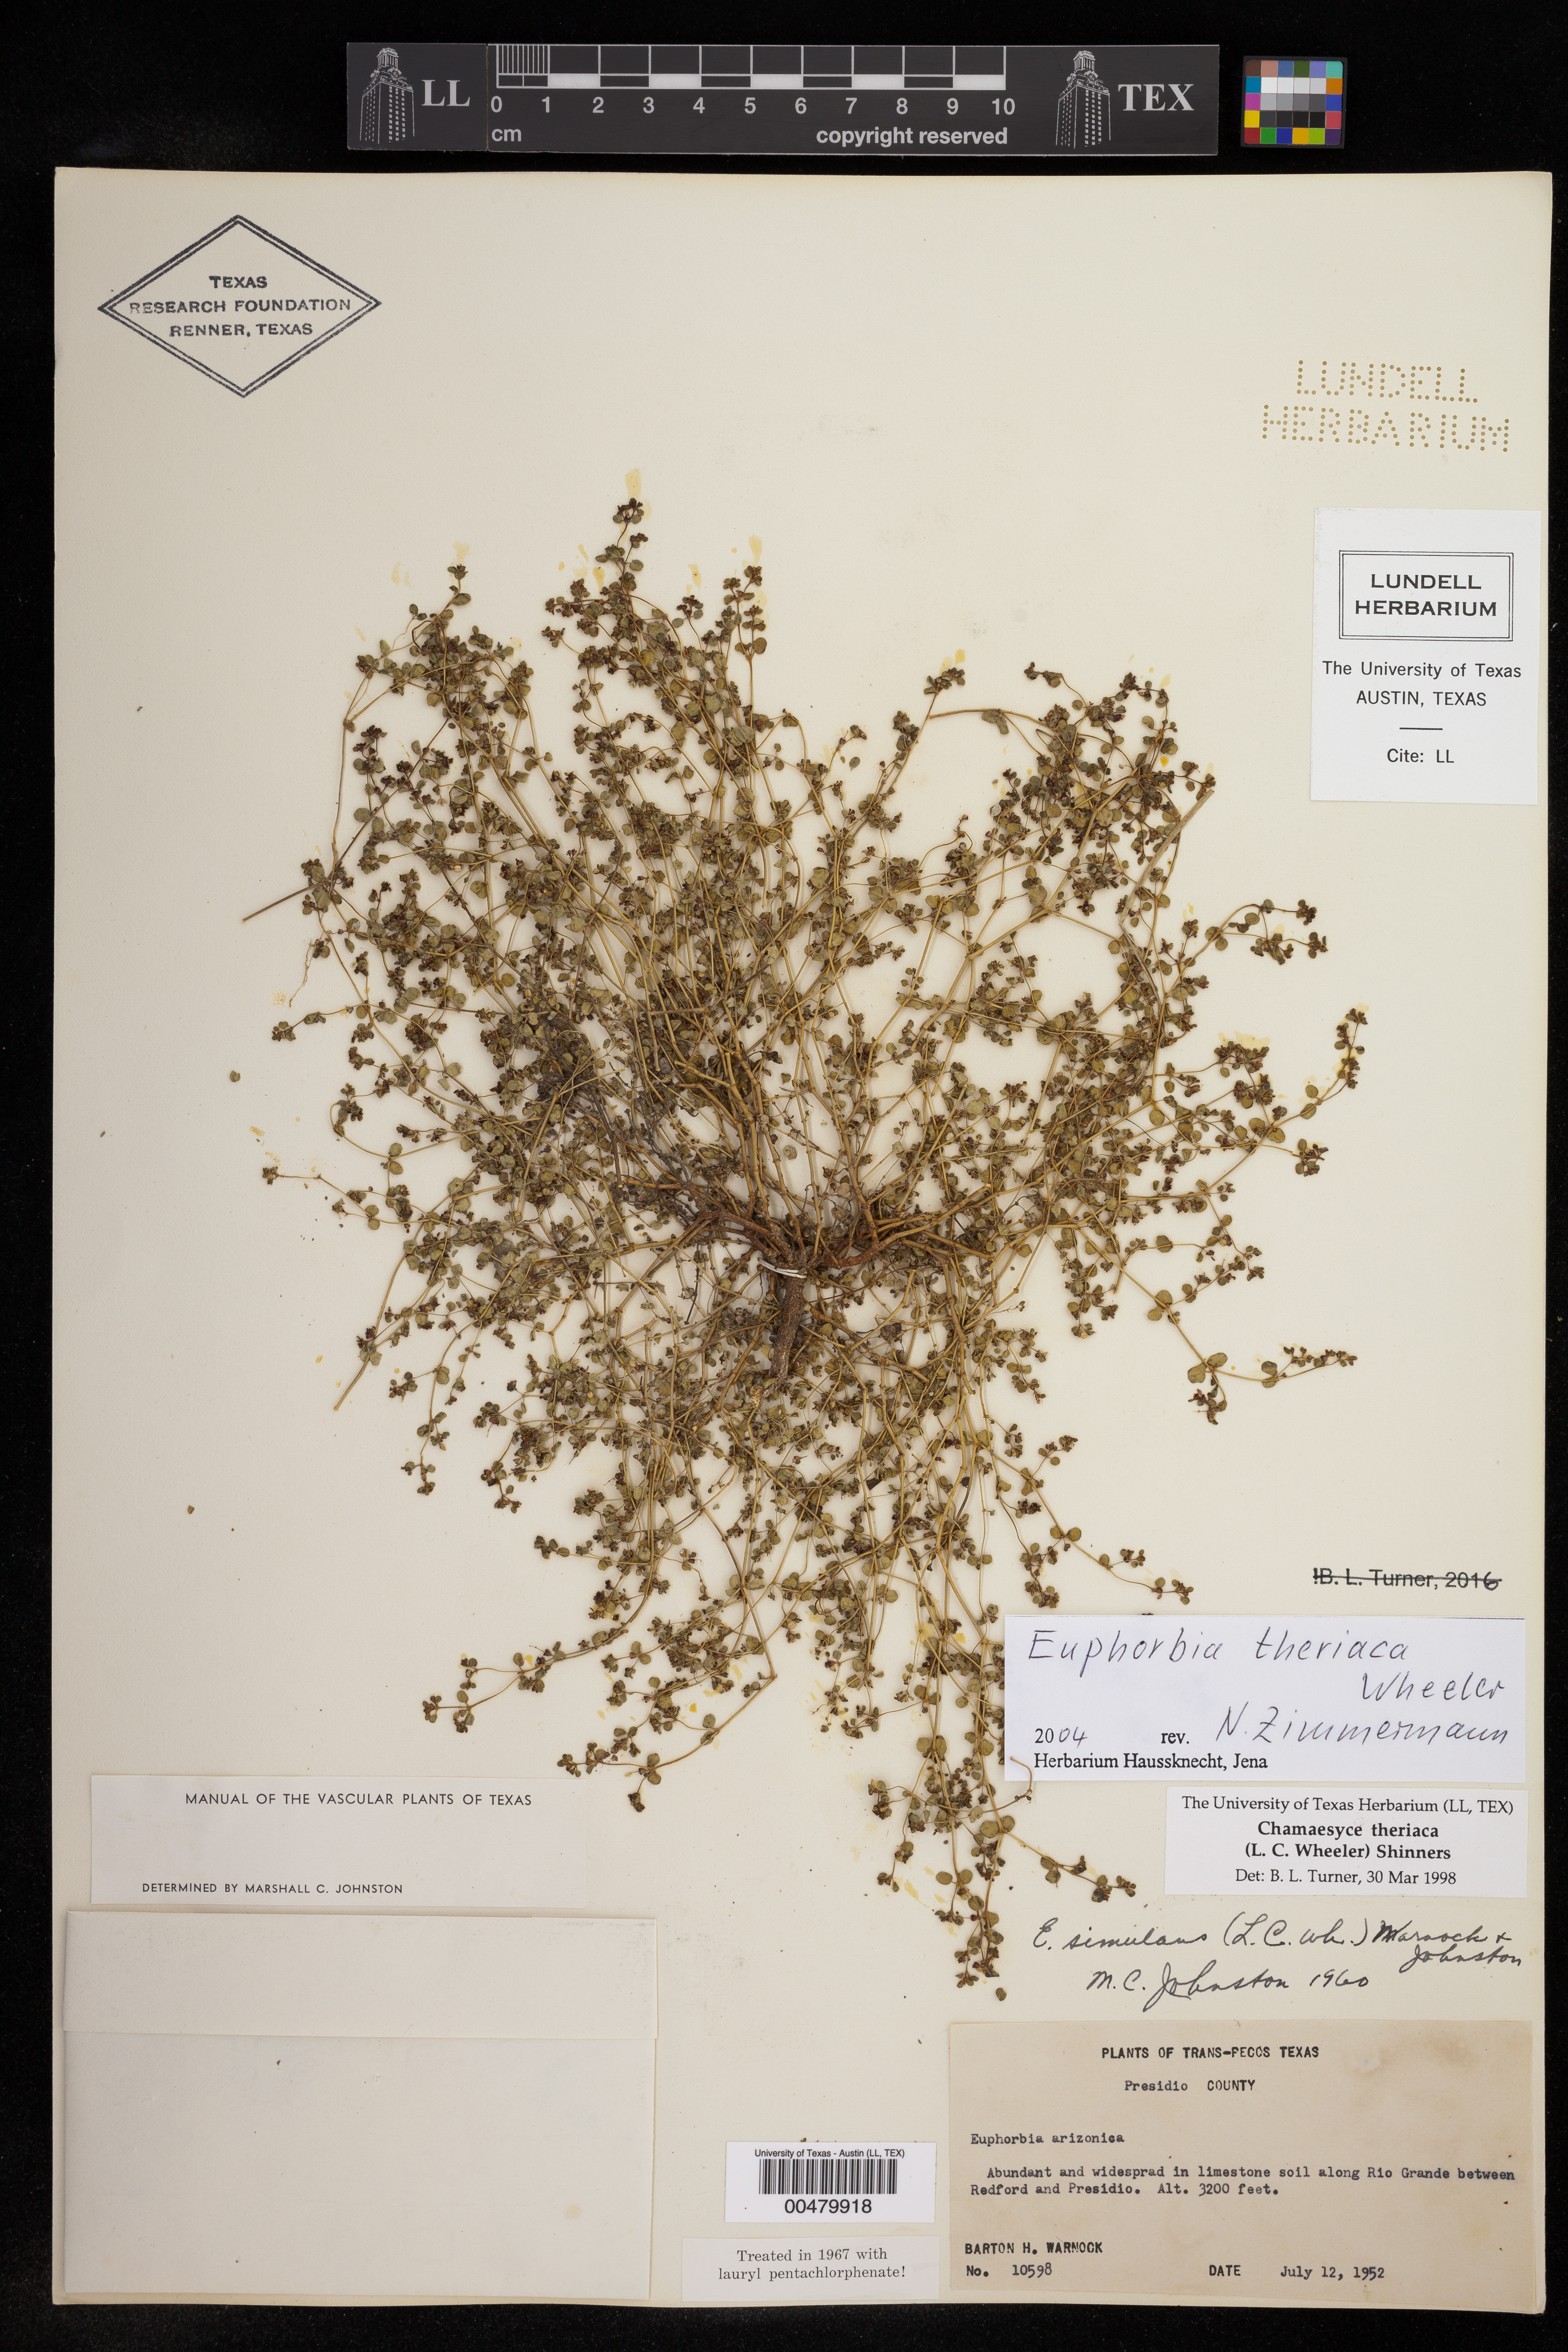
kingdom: Plantae
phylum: Tracheophyta
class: Magnoliopsida
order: Malpighiales
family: Euphorbiaceae
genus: Euphorbia
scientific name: Euphorbia theriaca
